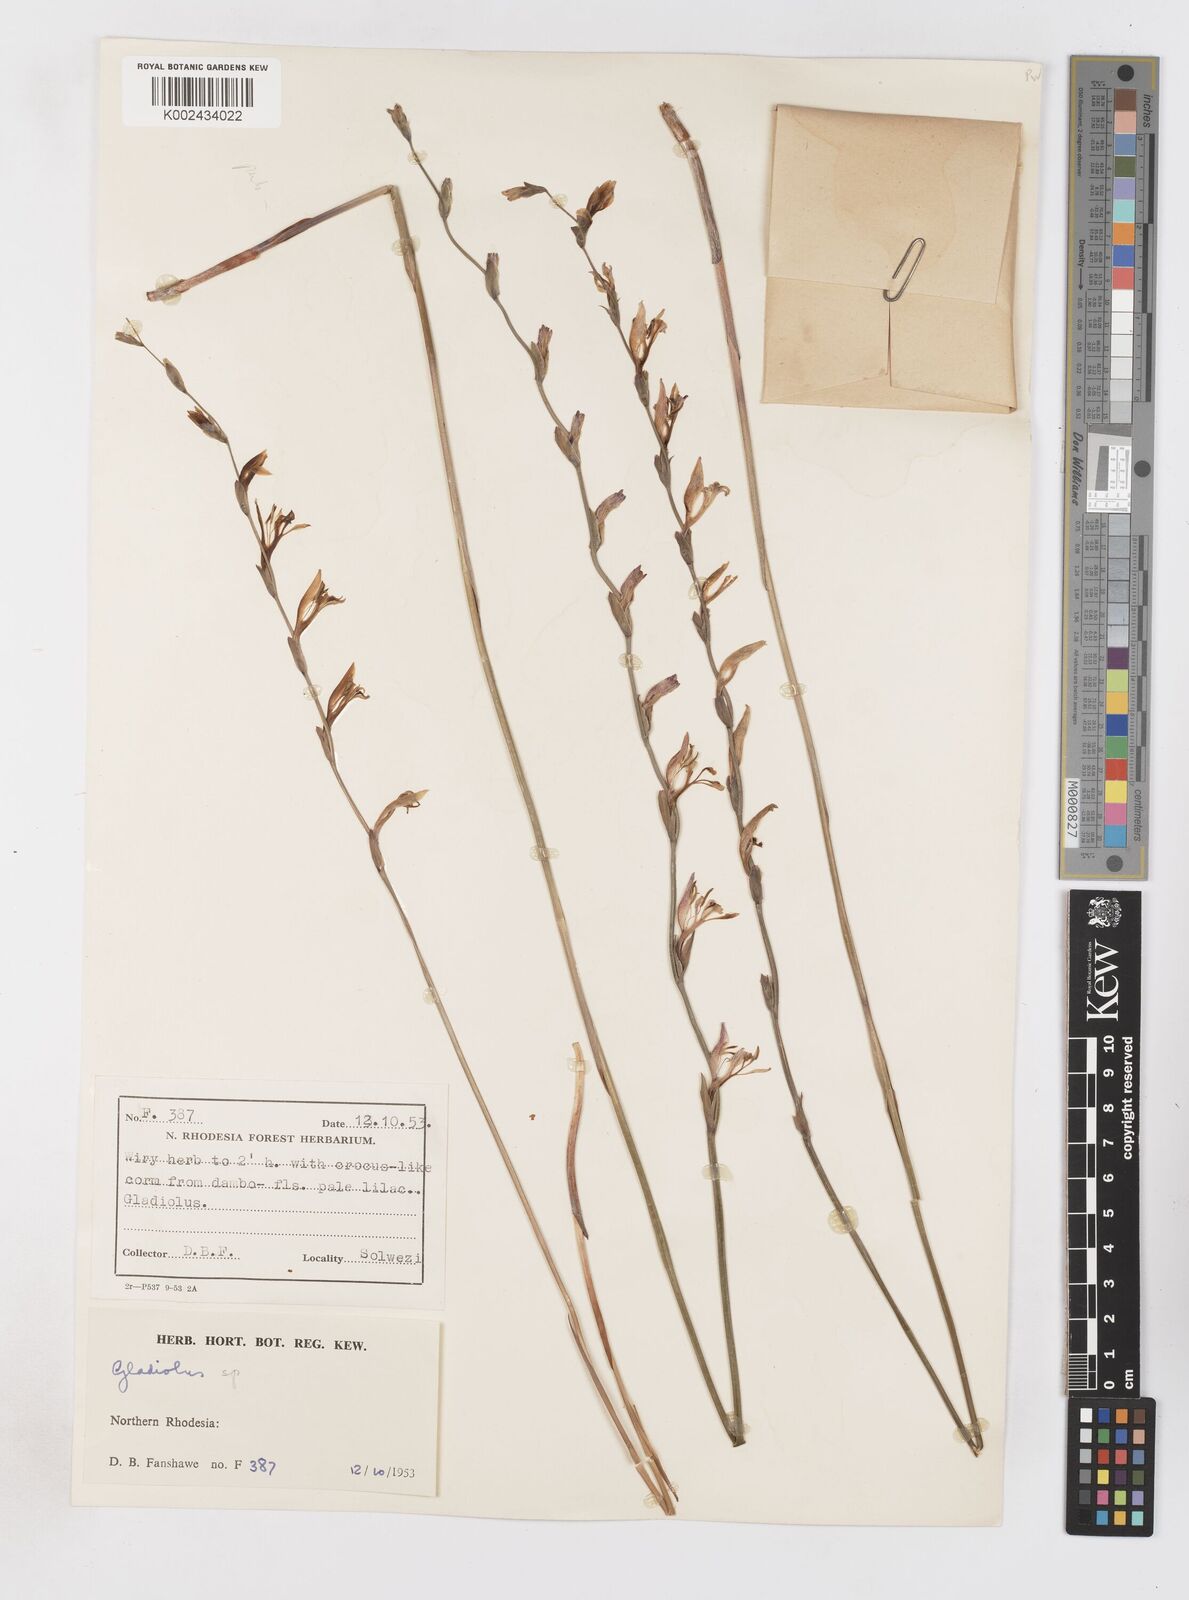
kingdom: Plantae
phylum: Tracheophyta
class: Liliopsida
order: Asparagales
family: Iridaceae
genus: Gladiolus
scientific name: Gladiolus atropurpureus
